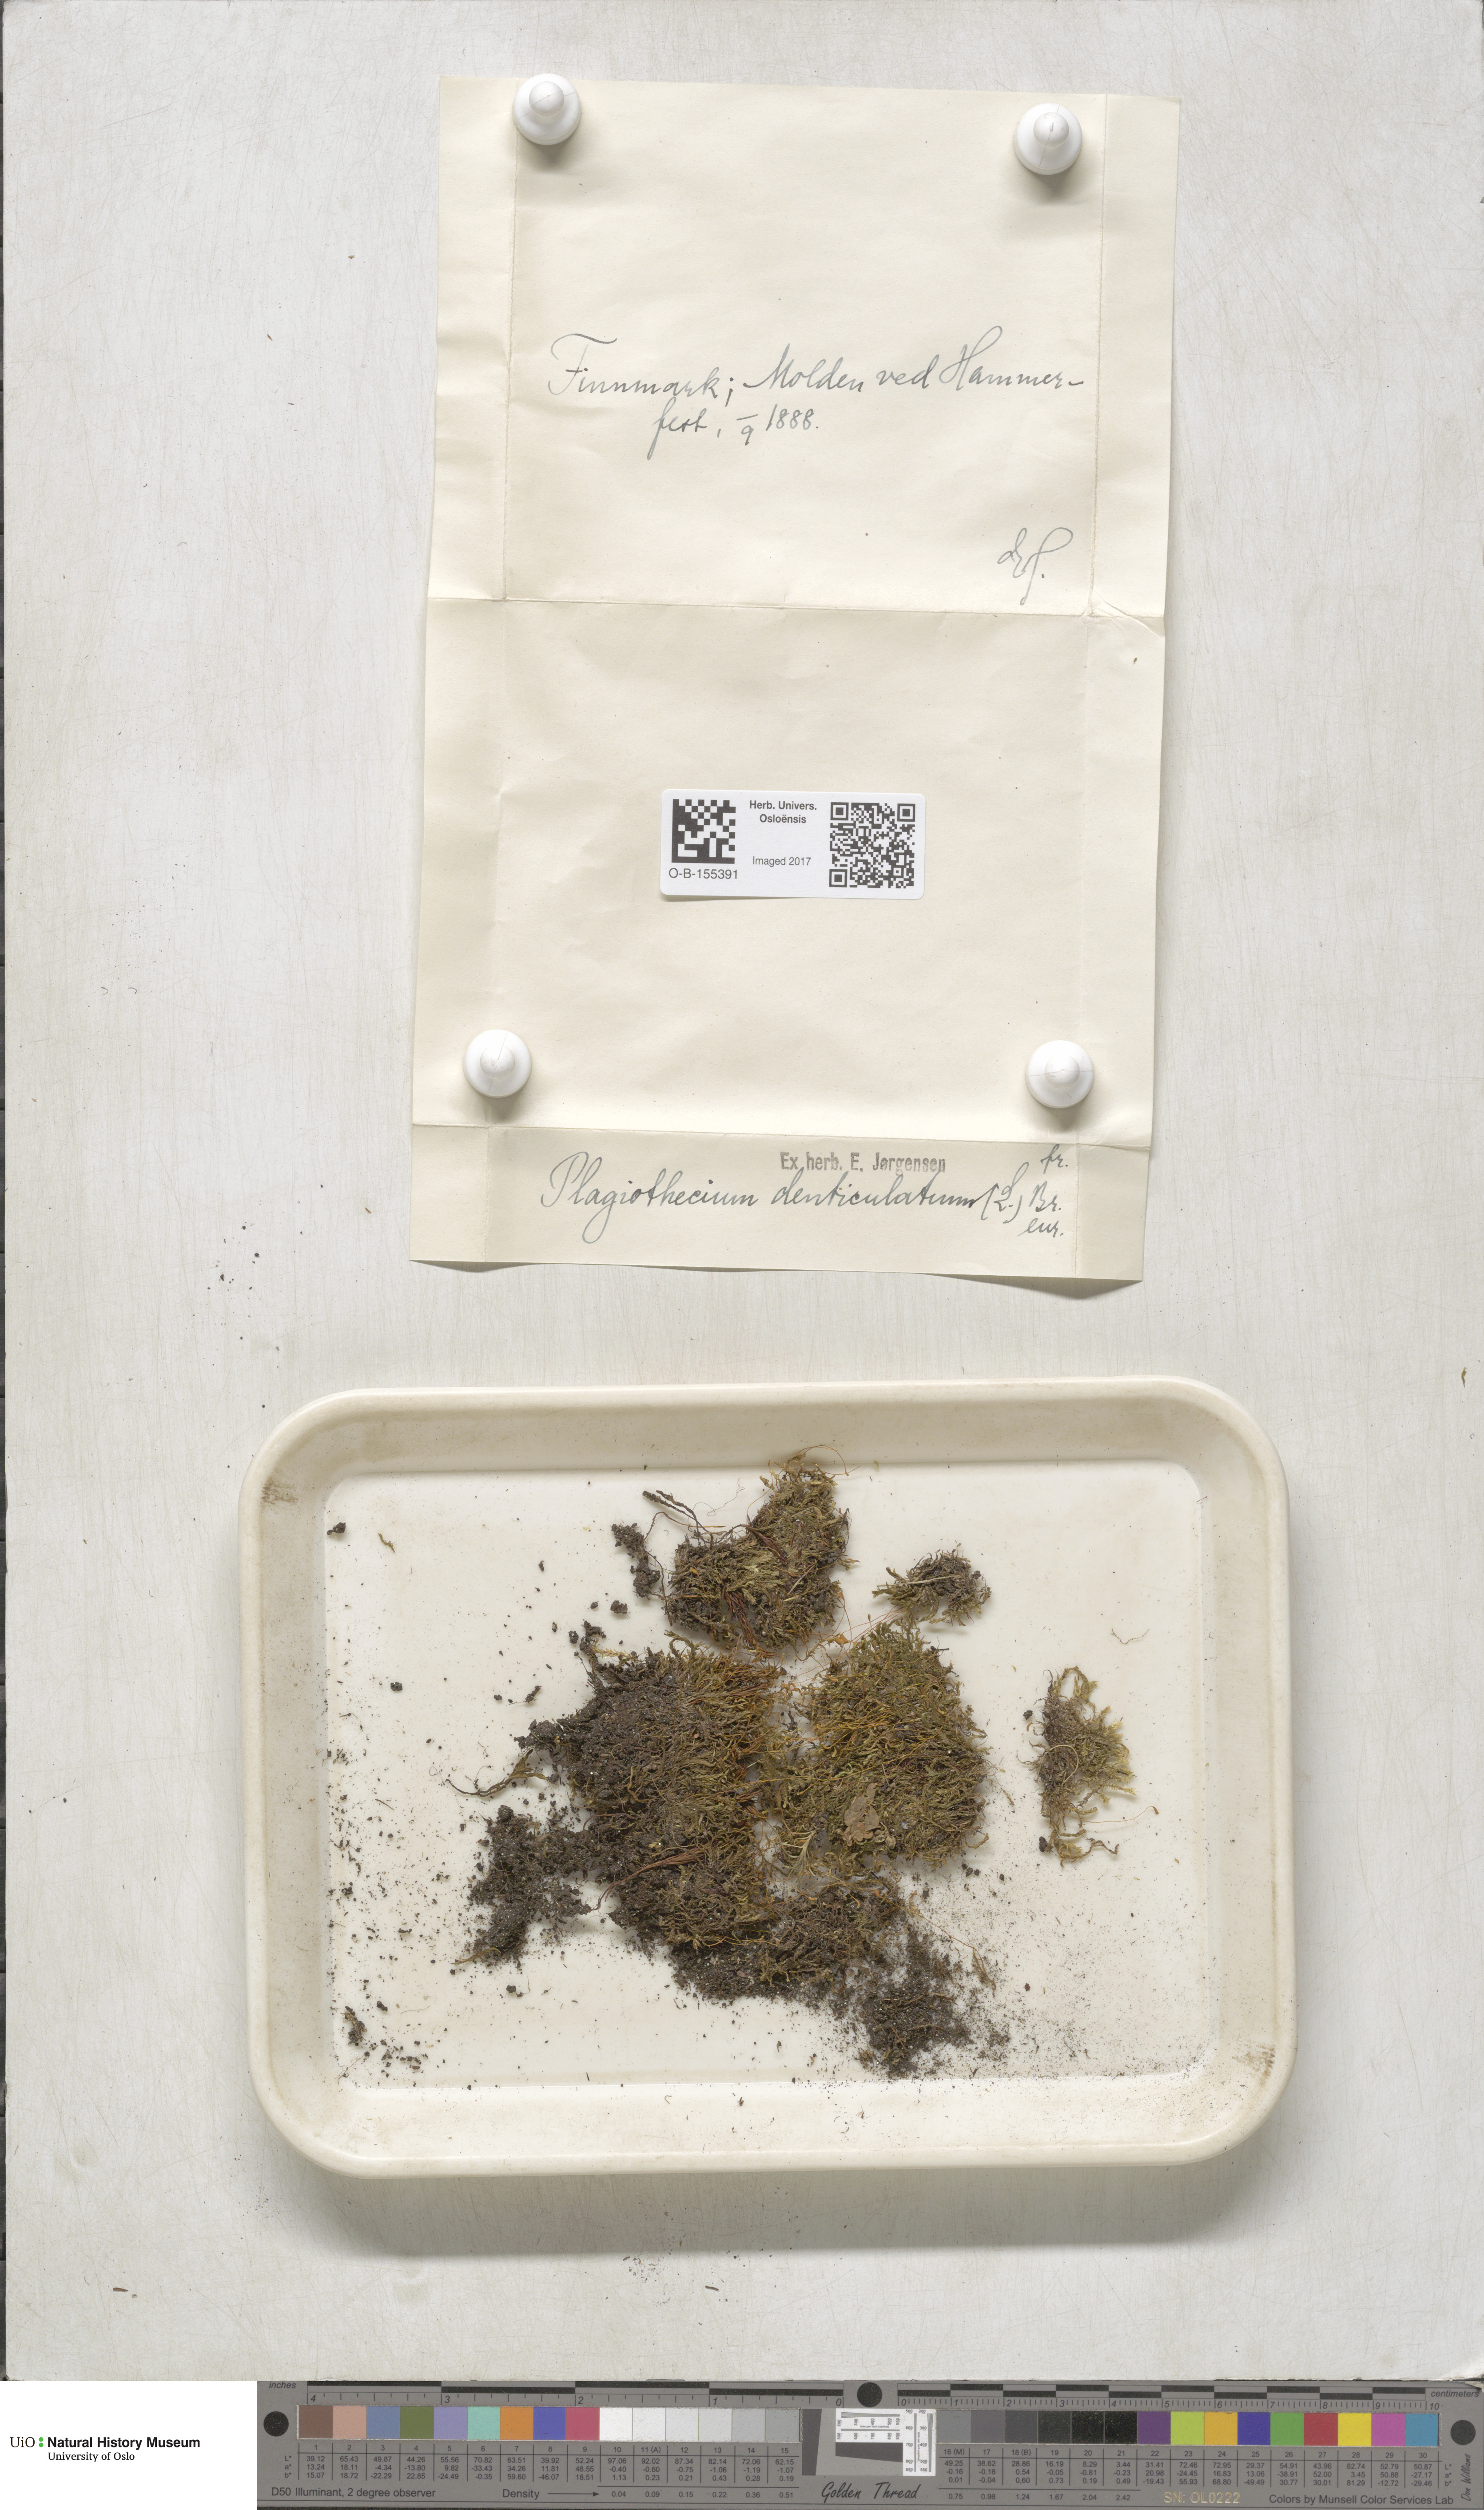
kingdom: Plantae
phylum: Bryophyta
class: Bryopsida
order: Hypnales
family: Plagiotheciaceae
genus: Plagiothecium
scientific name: Plagiothecium denticulatum
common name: Dented silk moss
